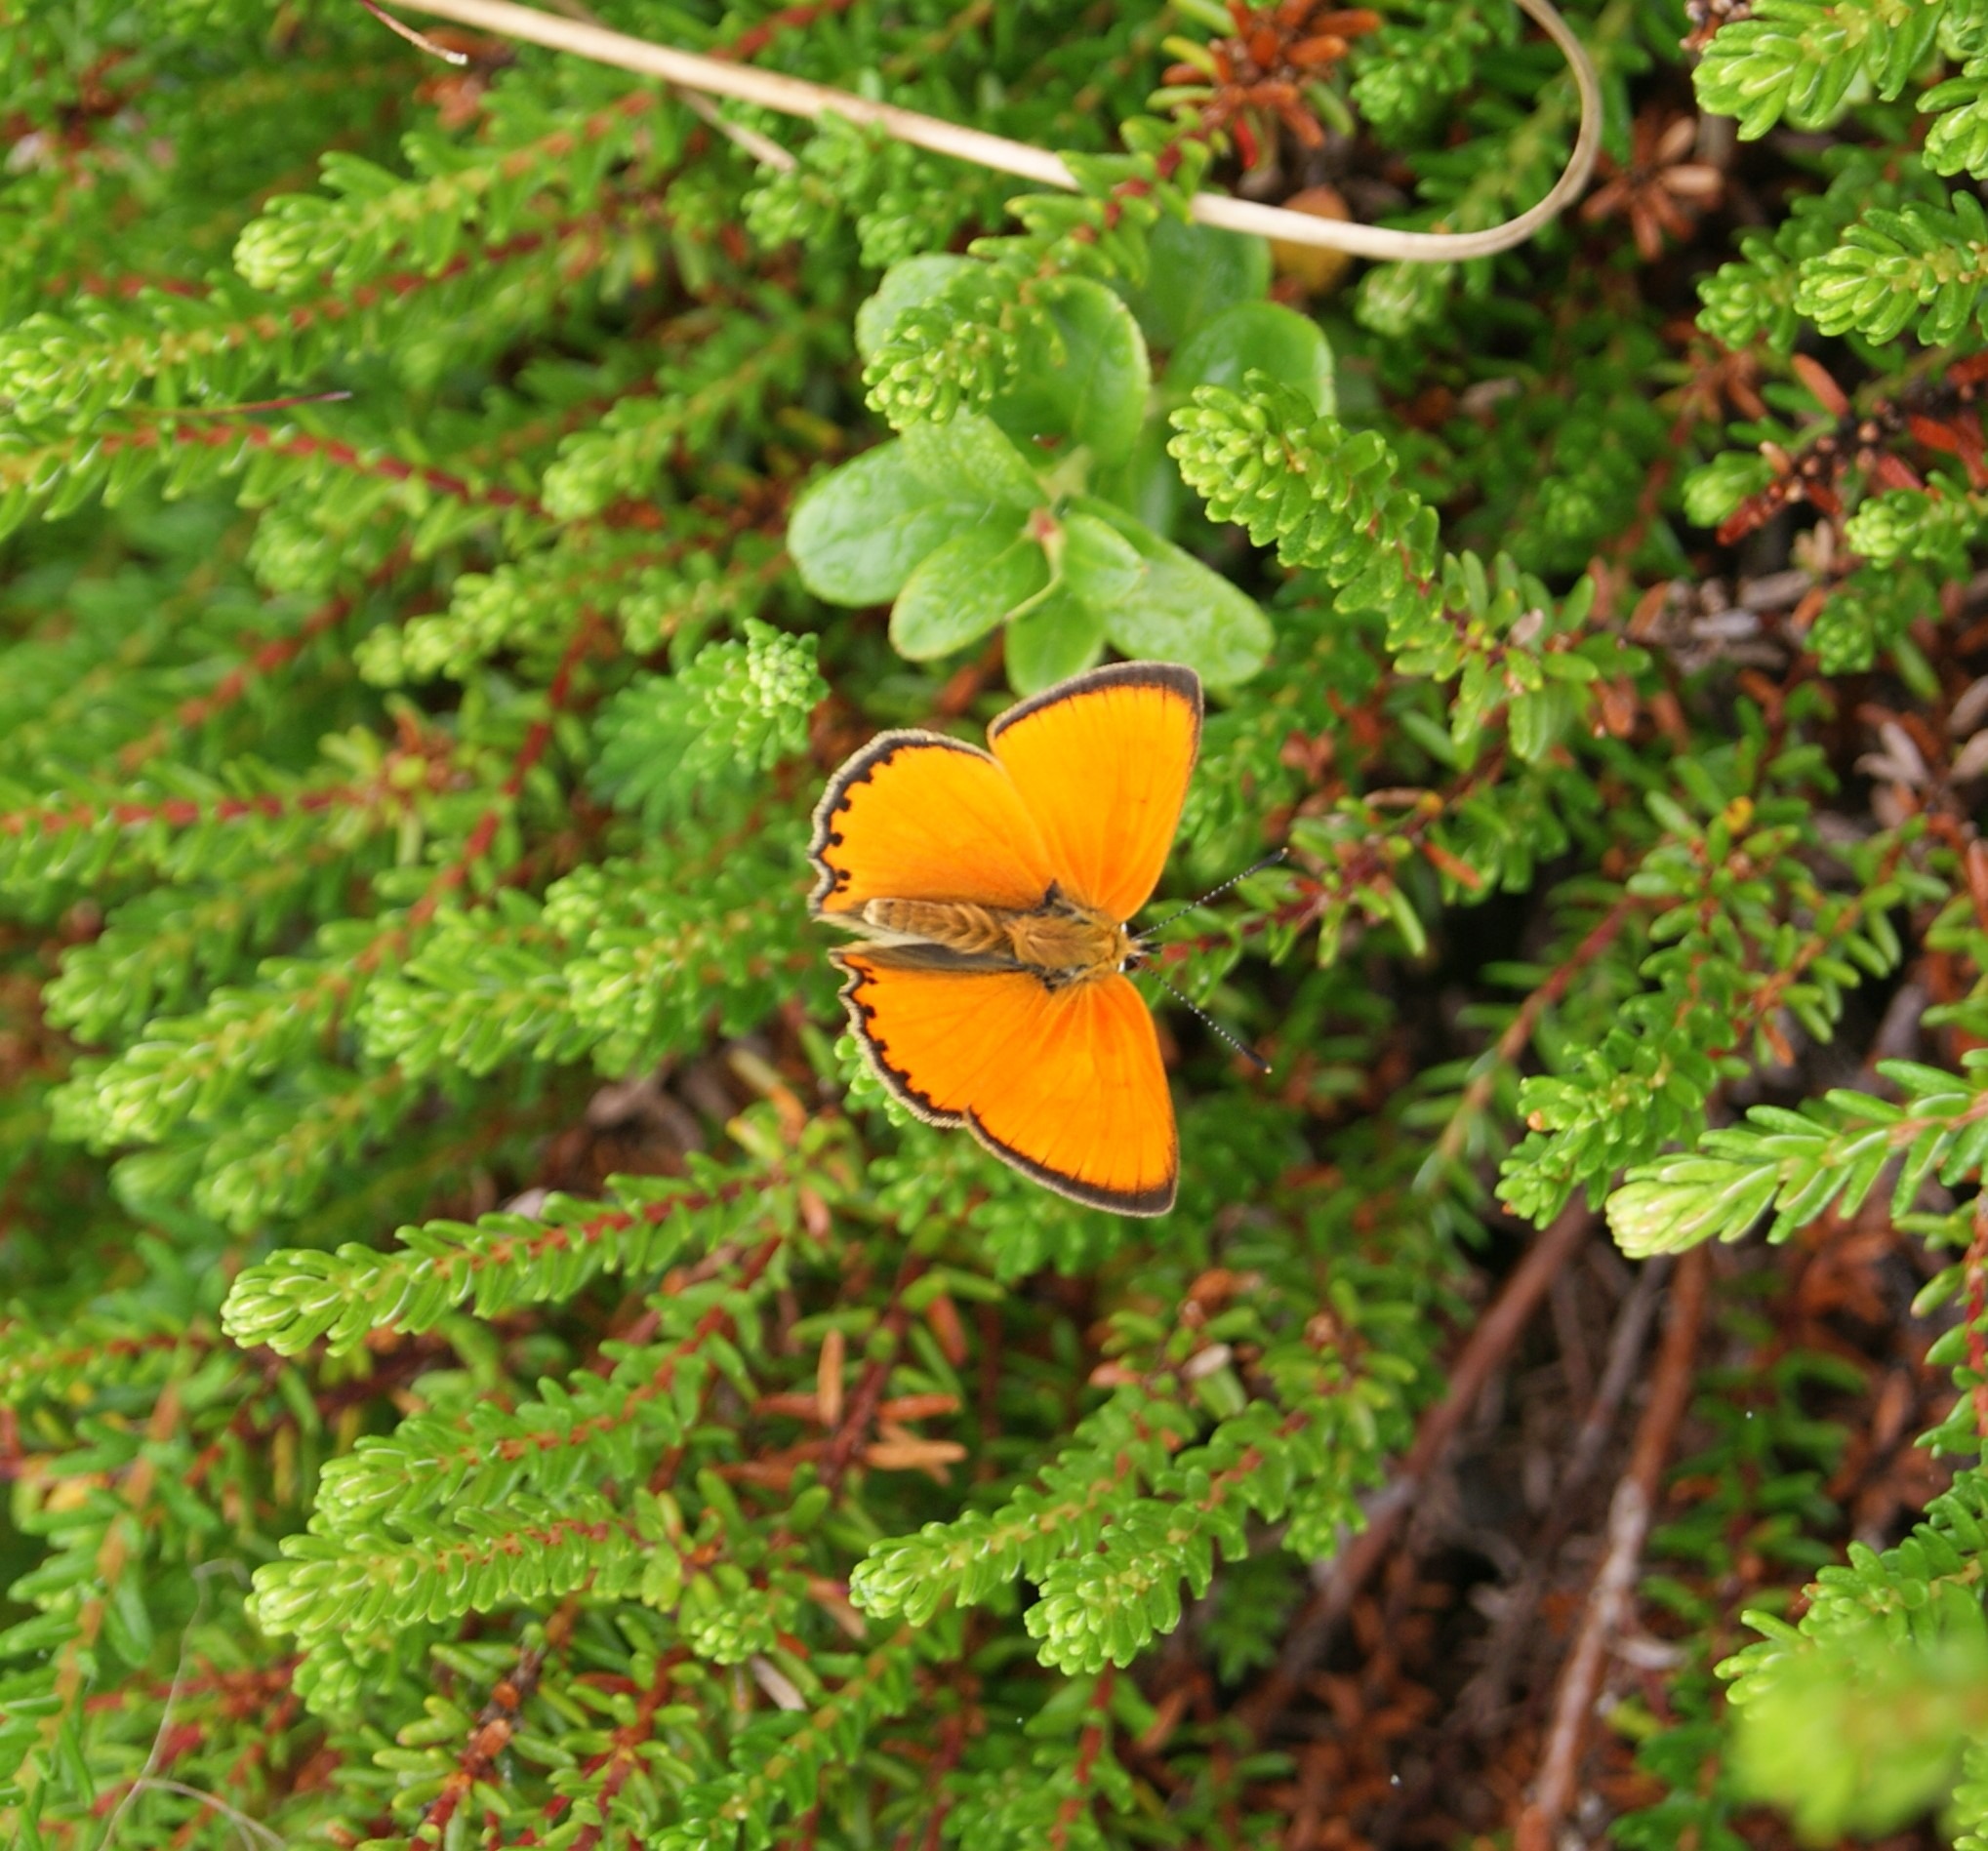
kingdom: Animalia
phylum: Arthropoda
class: Insecta
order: Lepidoptera
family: Lycaenidae
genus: Lycaena
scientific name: Lycaena virgaureae
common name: Dukatsommerfugl
